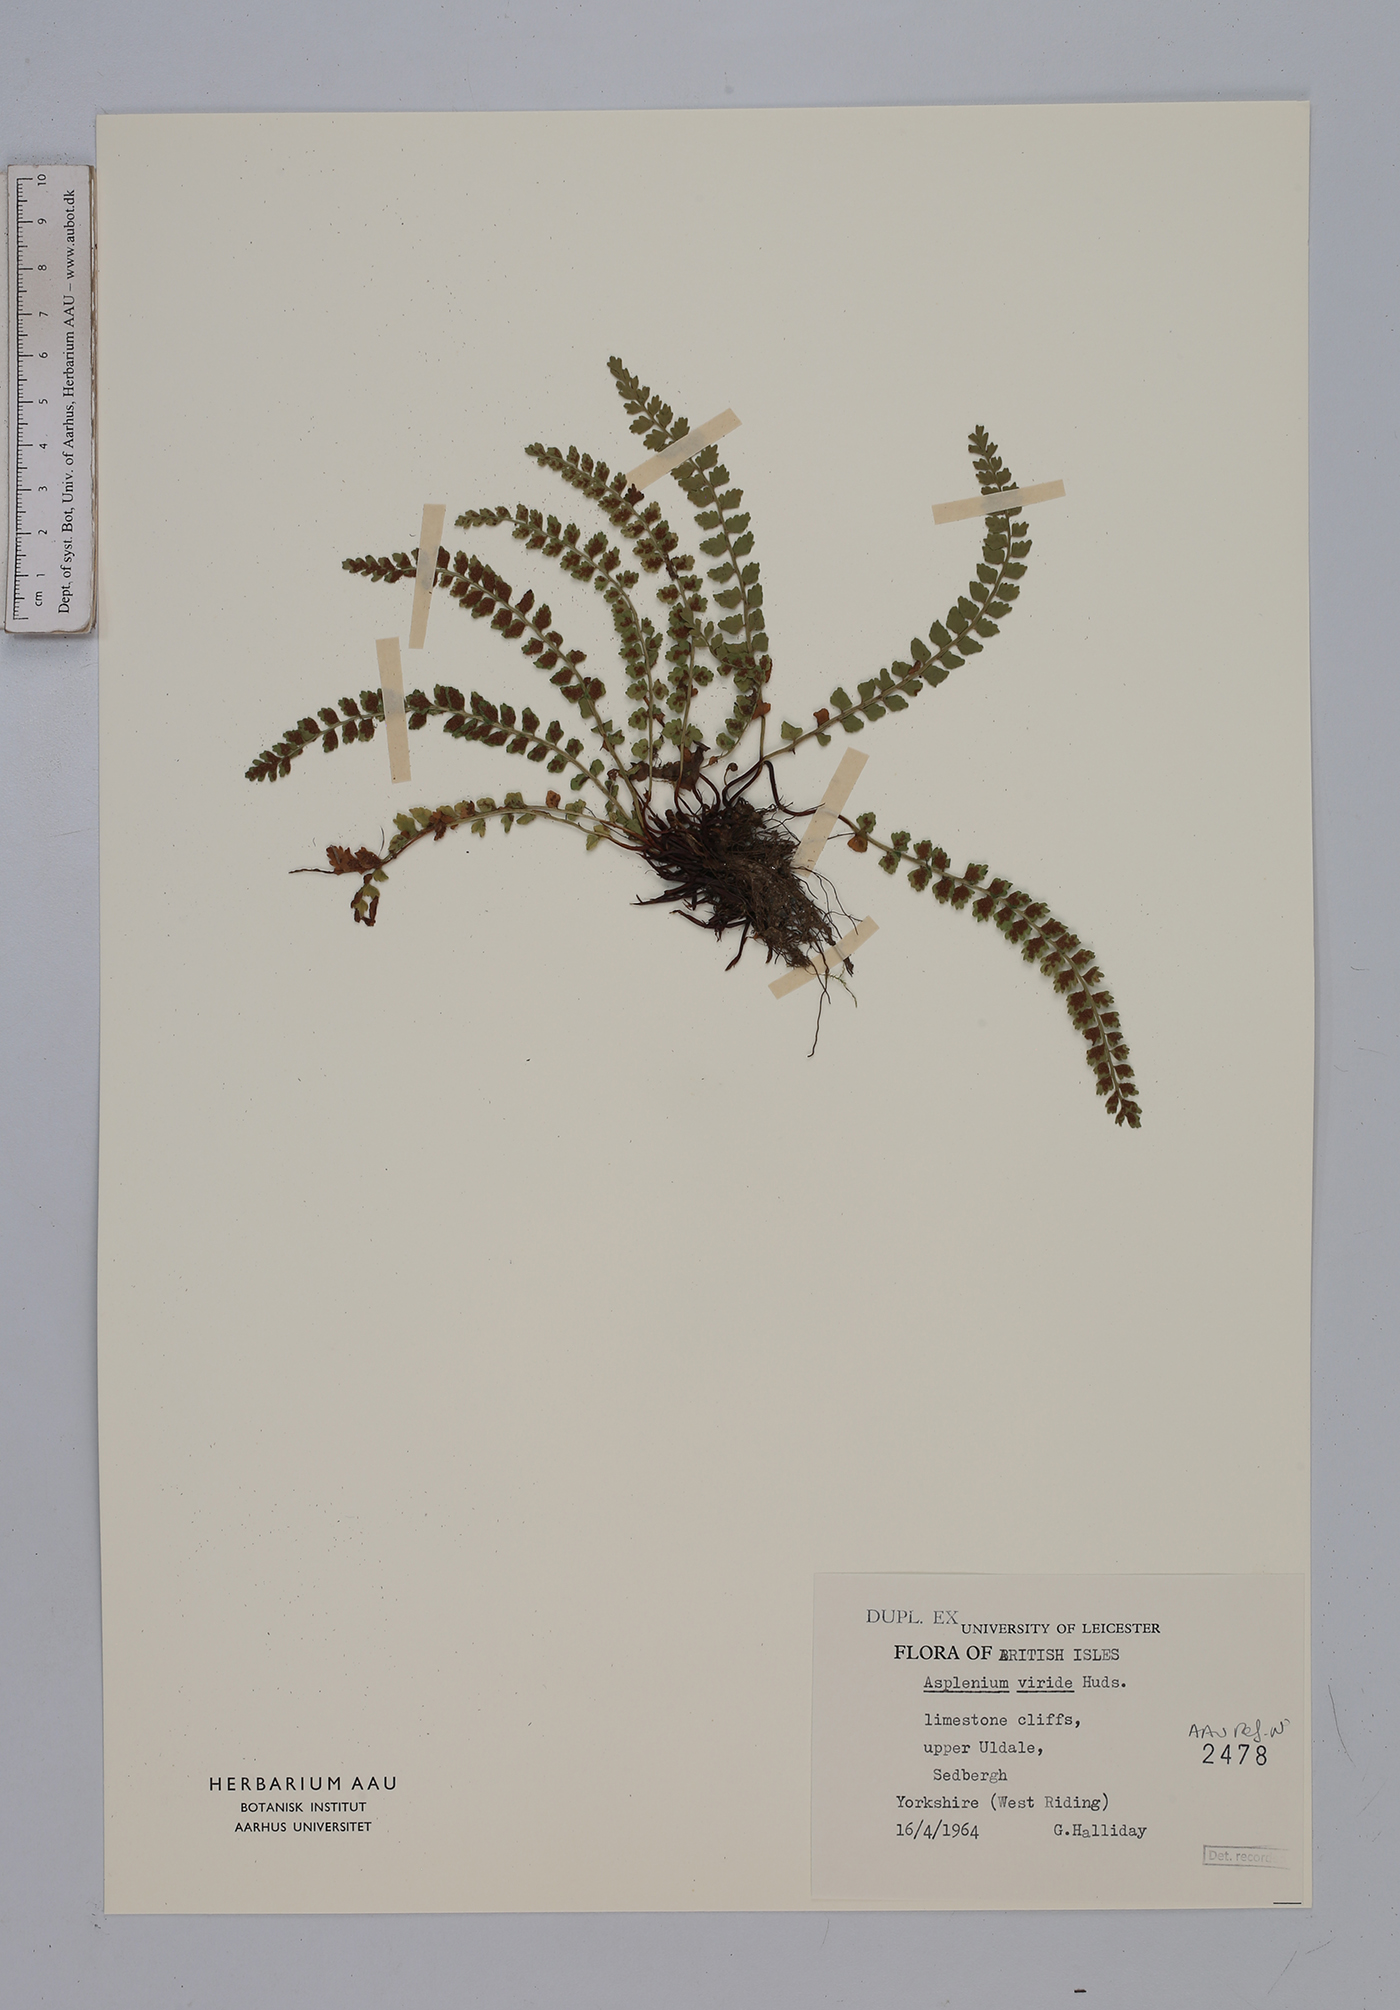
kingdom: Plantae
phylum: Tracheophyta
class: Polypodiopsida
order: Polypodiales
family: Aspleniaceae
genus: Asplenium
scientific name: Asplenium viride
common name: Green spleenwort
